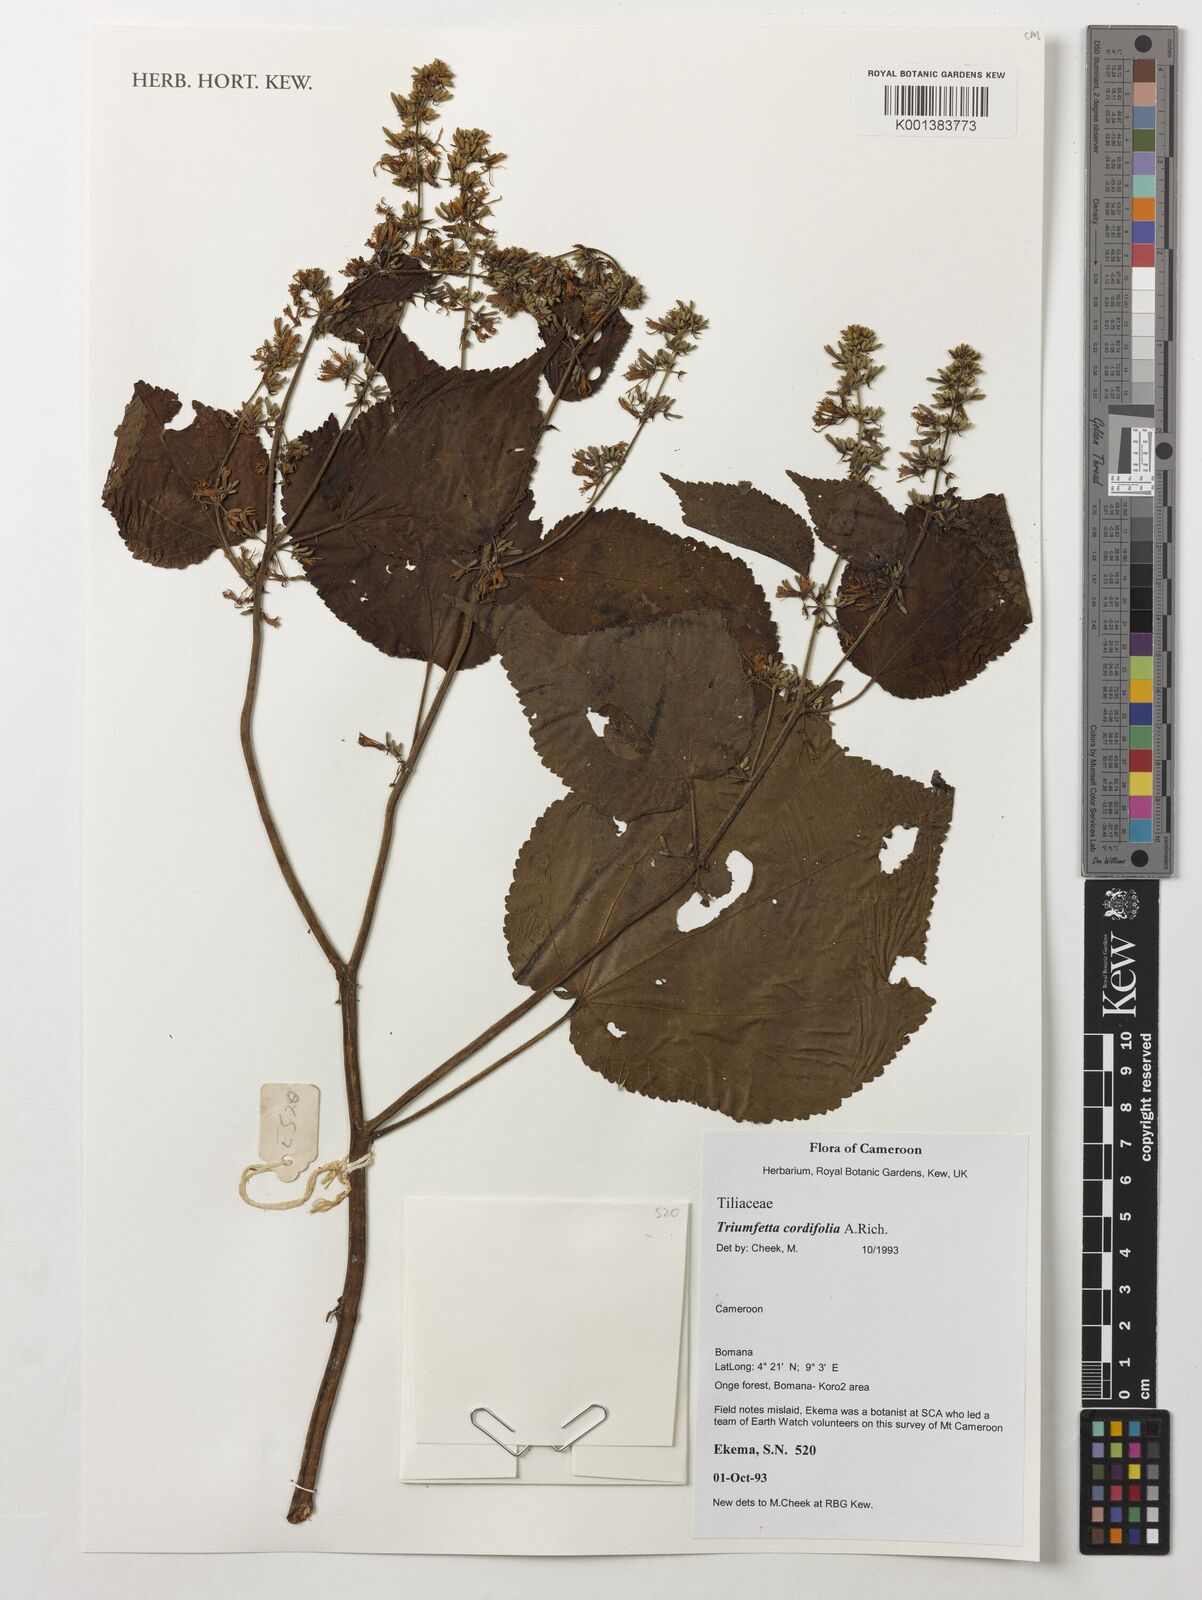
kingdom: Plantae
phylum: Tracheophyta
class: Magnoliopsida
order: Malvales
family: Malvaceae
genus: Triumfetta
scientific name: Triumfetta cordifolia
